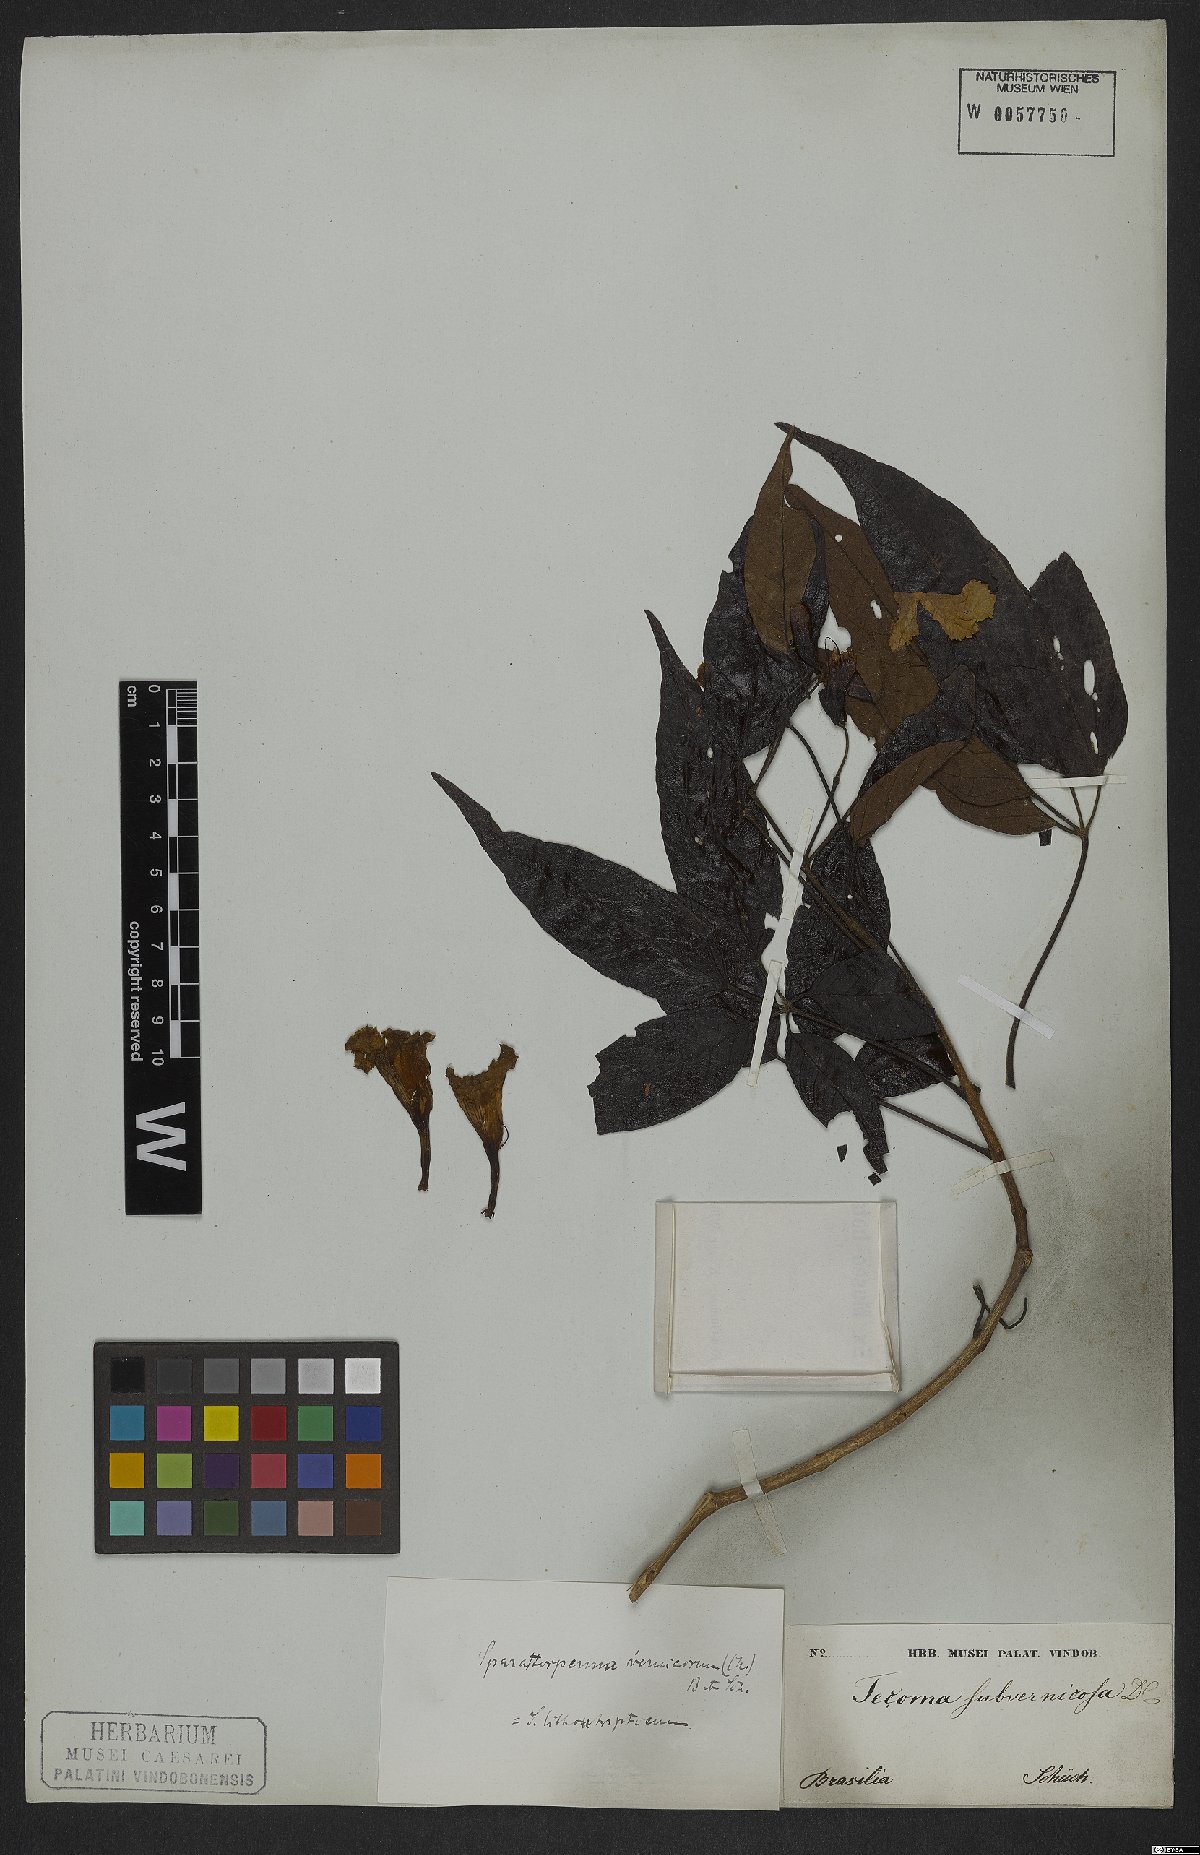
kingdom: Plantae
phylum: Tracheophyta
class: Magnoliopsida
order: Lamiales
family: Bignoniaceae
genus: Sparattosperma
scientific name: Sparattosperma leucanthum
